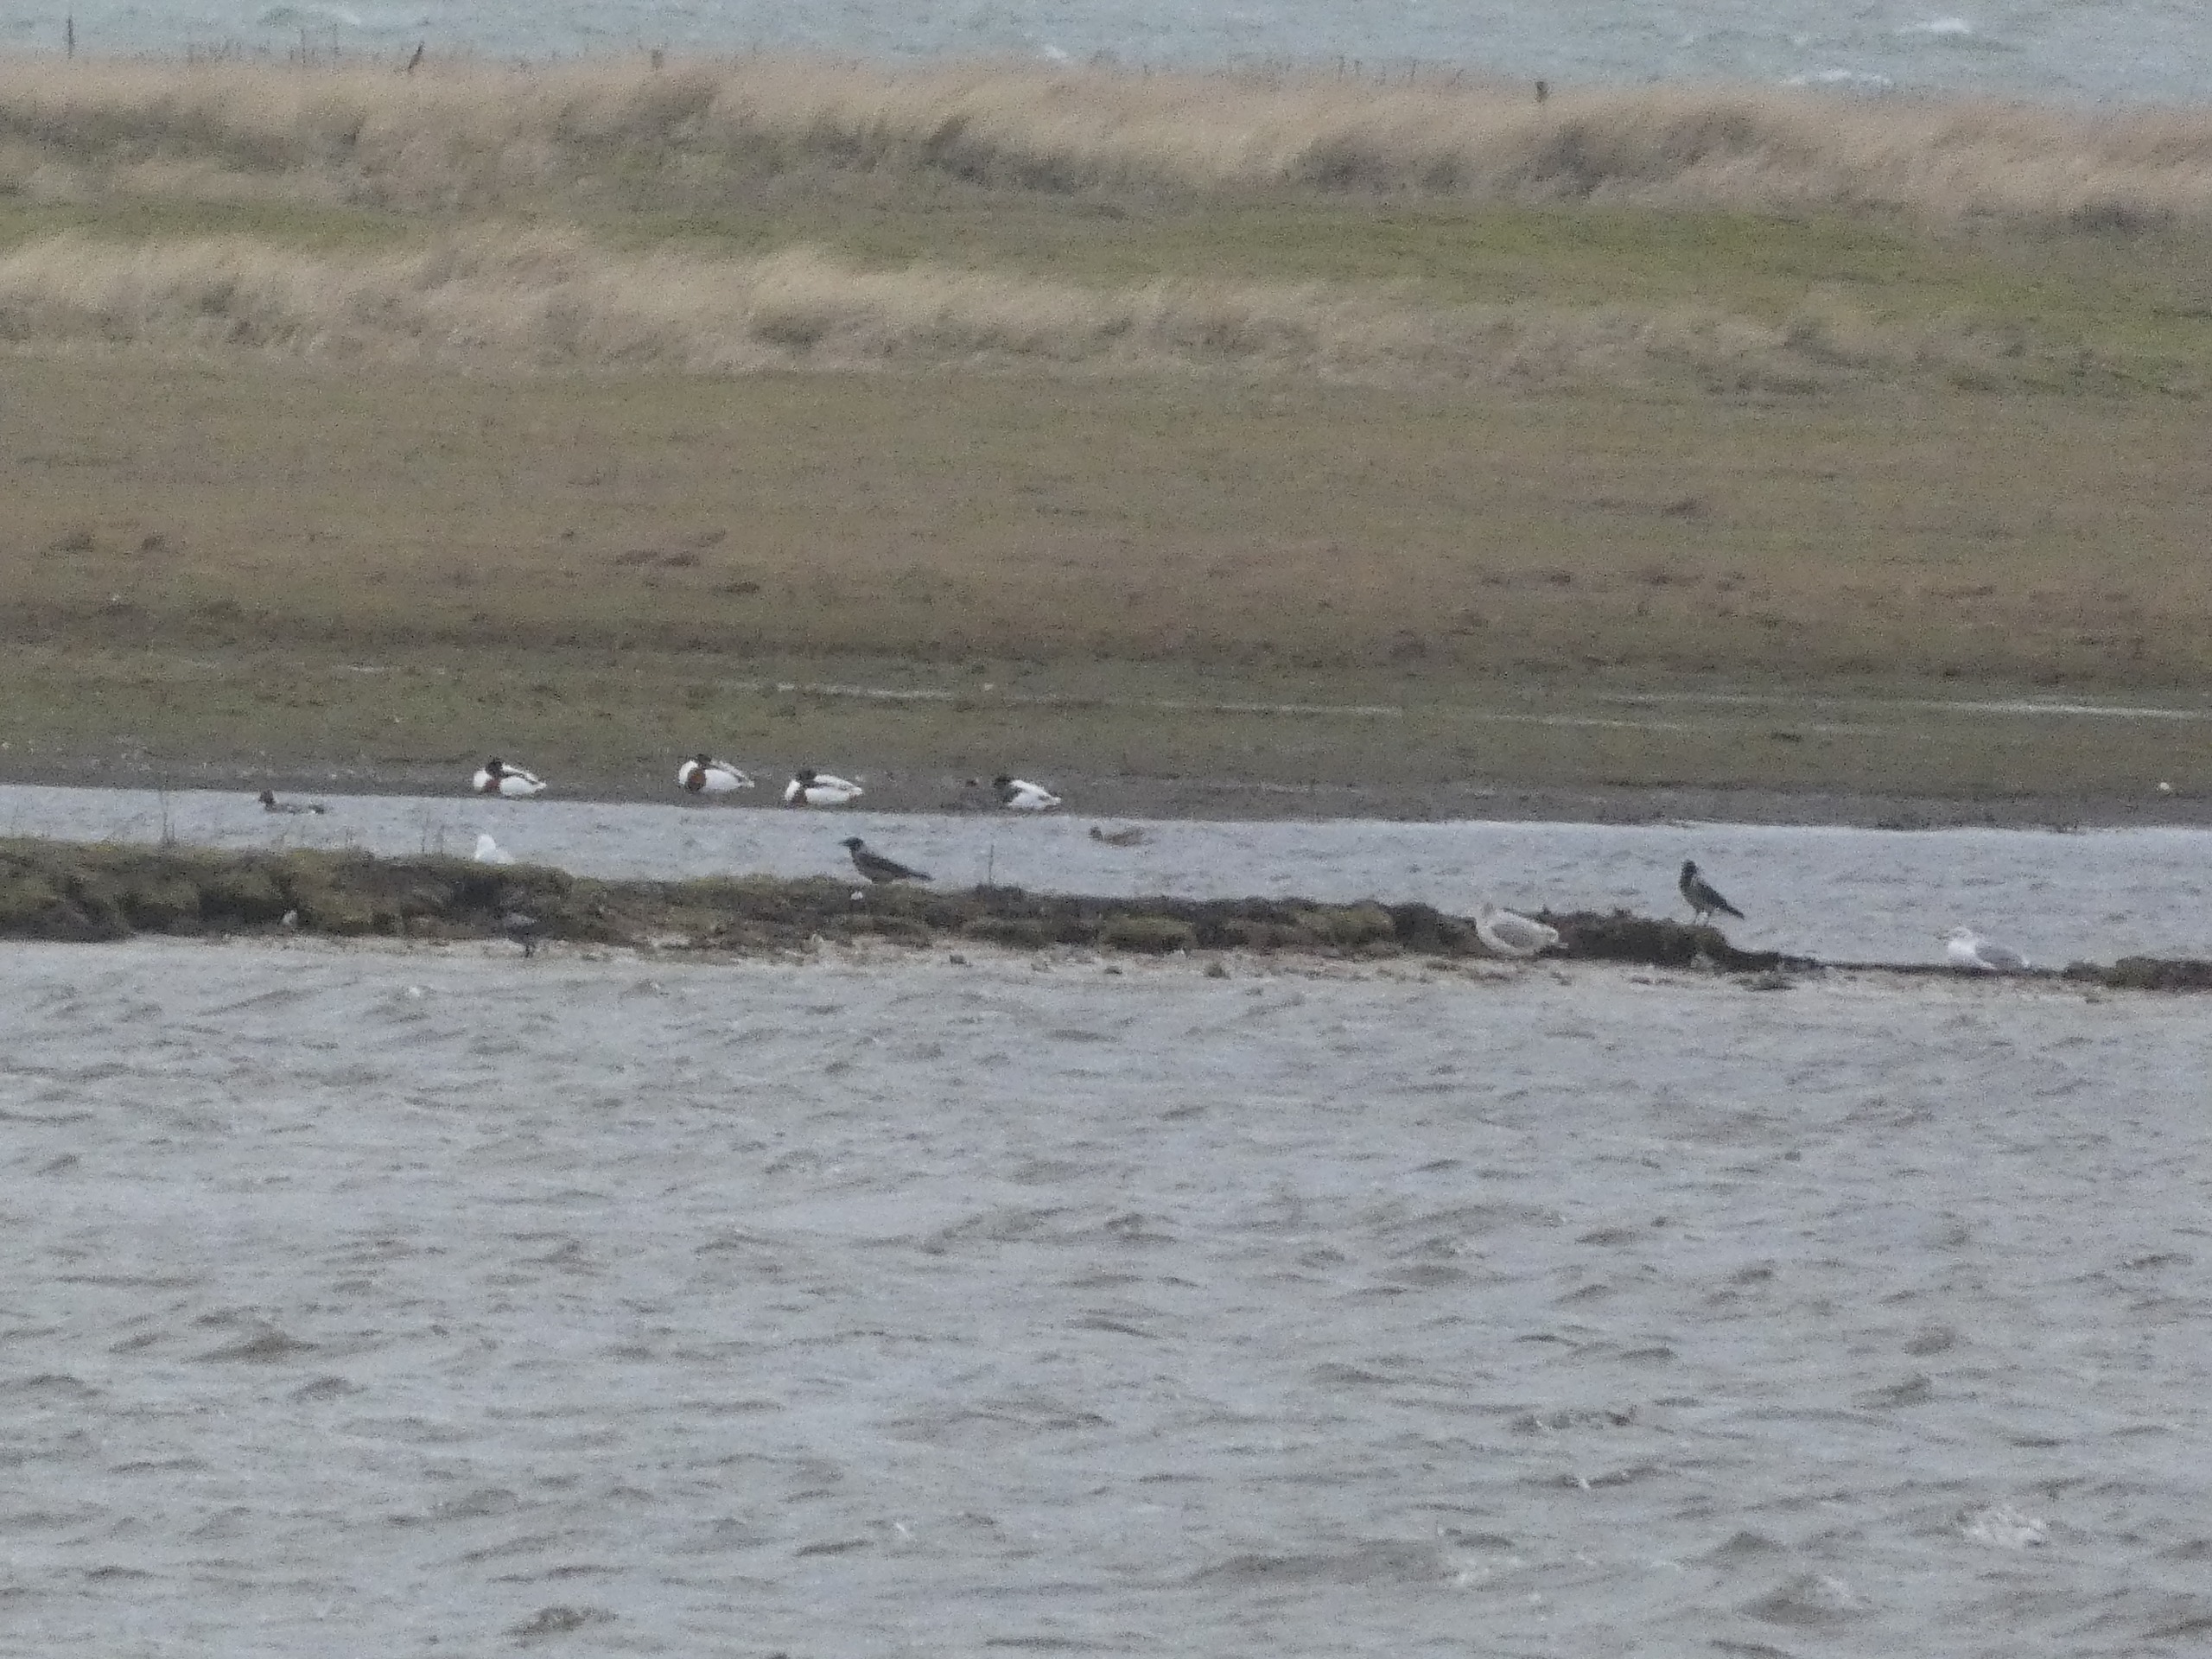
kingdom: Animalia
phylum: Chordata
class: Aves
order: Anseriformes
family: Anatidae
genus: Tadorna
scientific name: Tadorna tadorna
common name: Gravand
